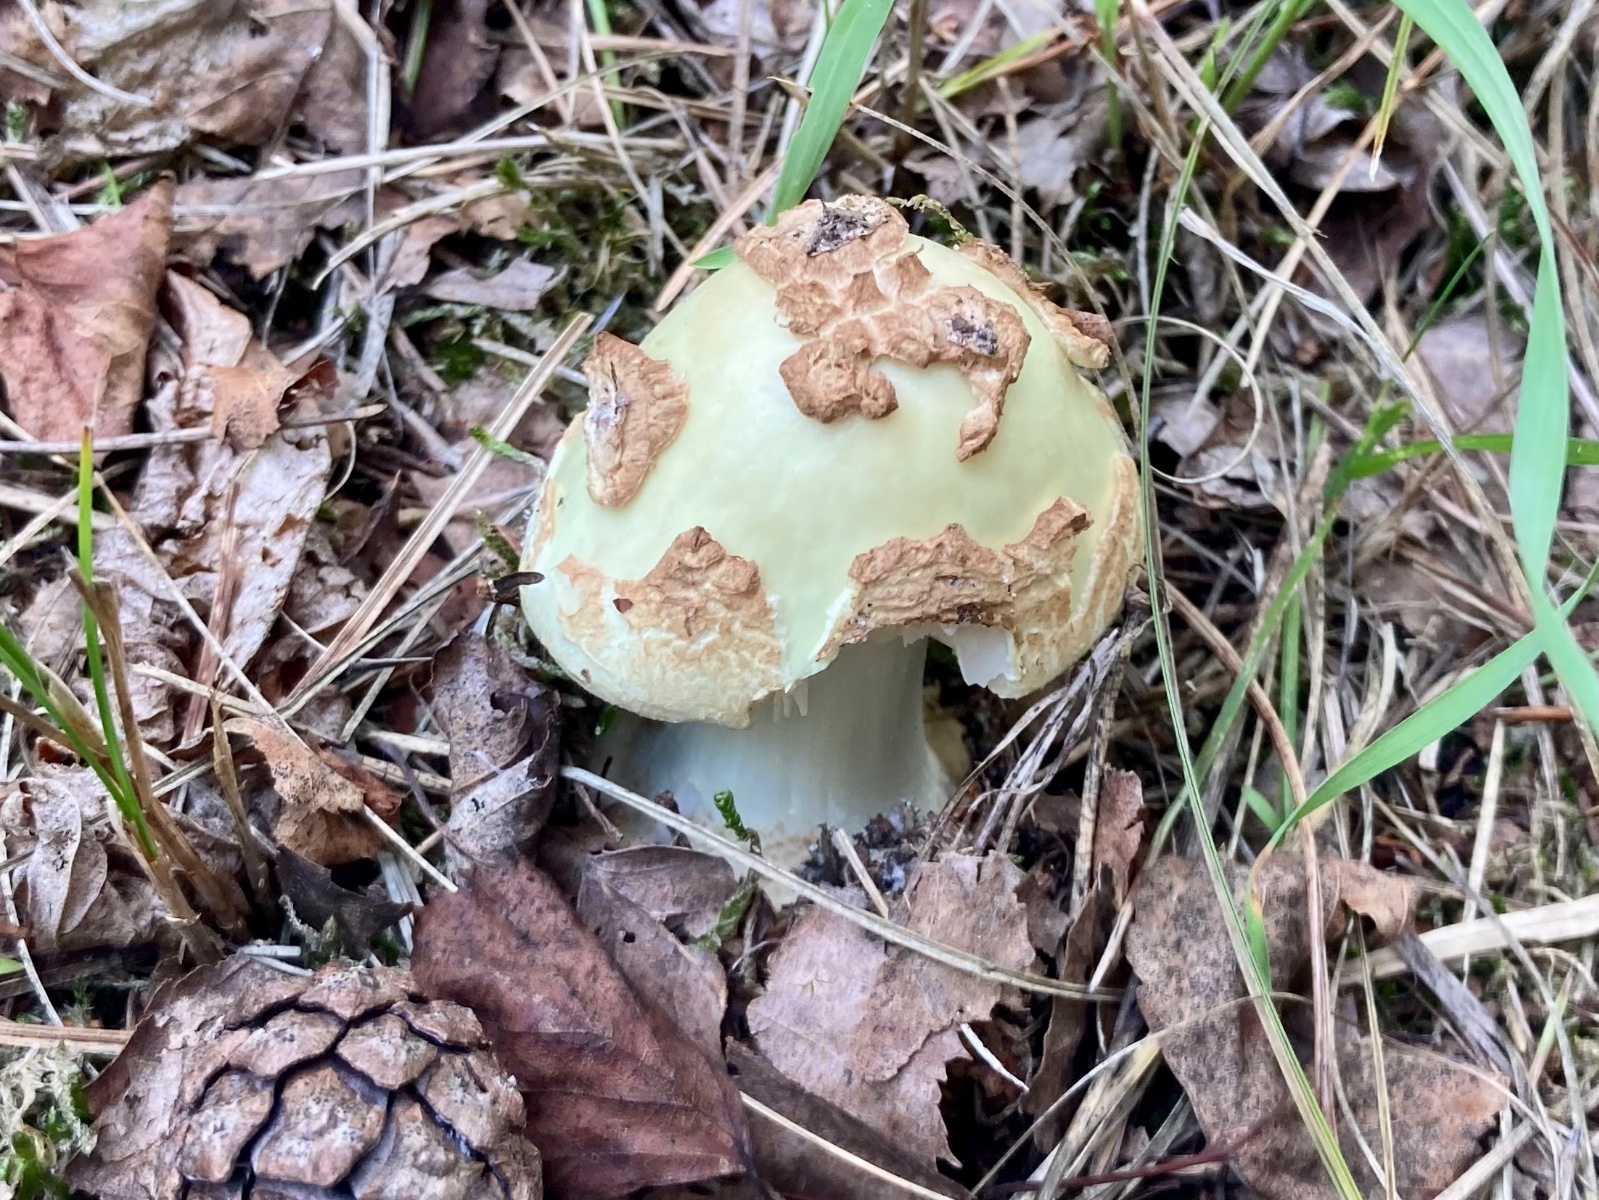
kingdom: Fungi
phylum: Basidiomycota
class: Agaricomycetes
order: Agaricales
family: Amanitaceae
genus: Amanita
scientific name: Amanita citrina
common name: kugleknoldet fluesvamp
